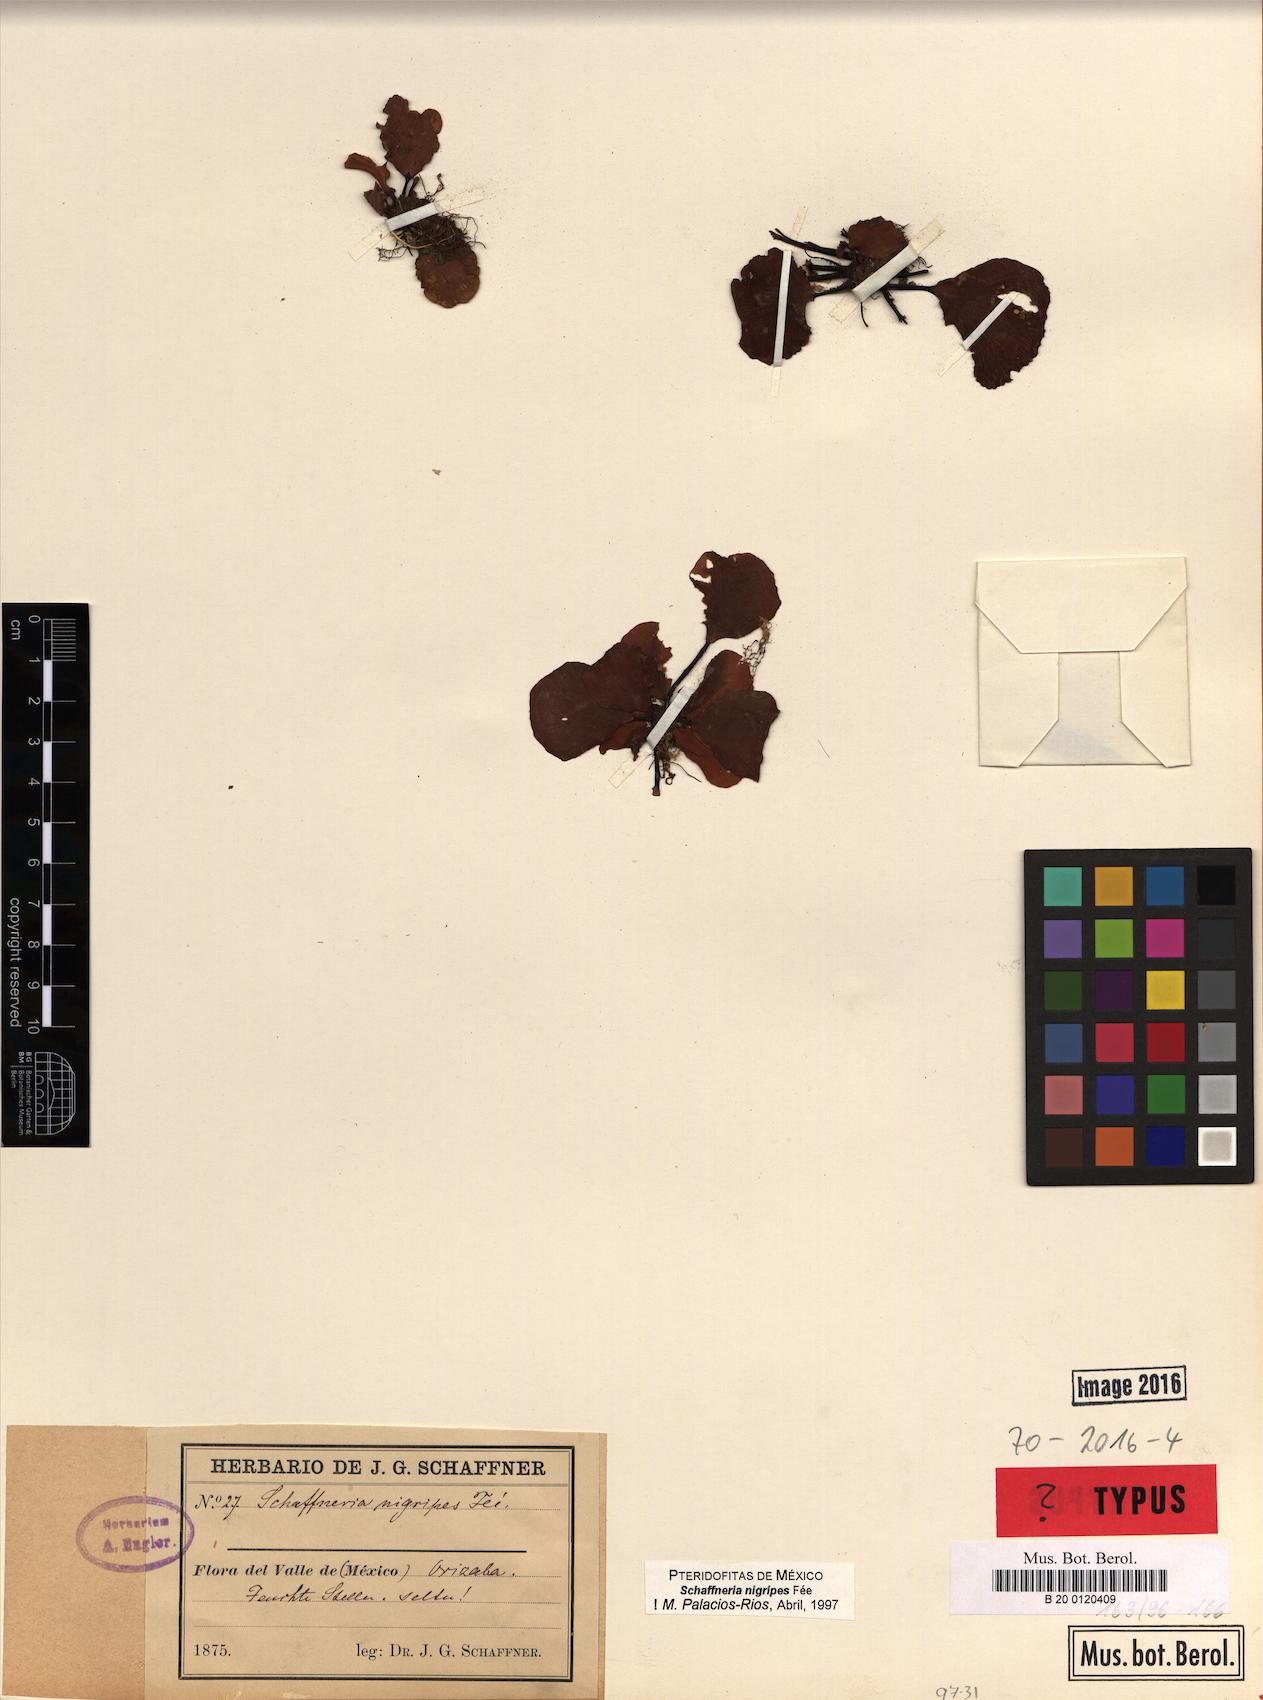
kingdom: Plantae
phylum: Tracheophyta
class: Polypodiopsida
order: Polypodiales
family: Aspleniaceae
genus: Asplenium
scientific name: Asplenium nigripes
